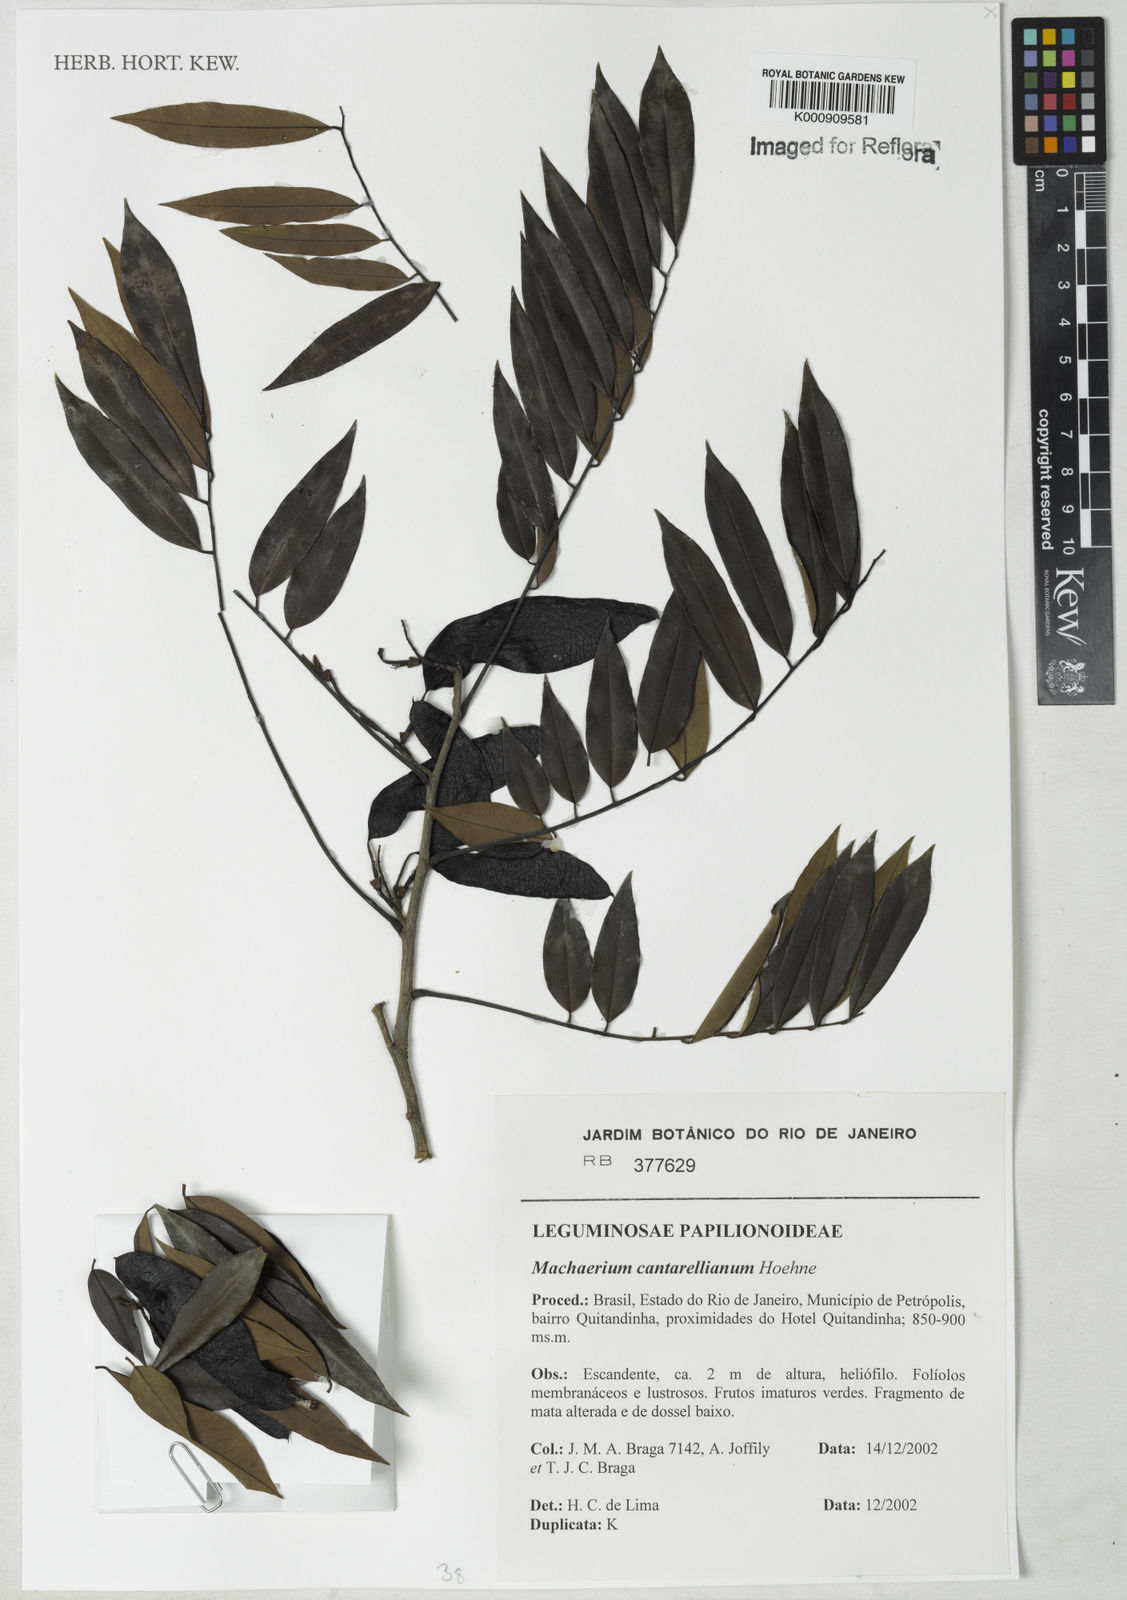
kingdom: Plantae
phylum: Tracheophyta
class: Magnoliopsida
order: Fabales
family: Fabaceae
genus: Machaerium
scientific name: Machaerium cantarellianum
